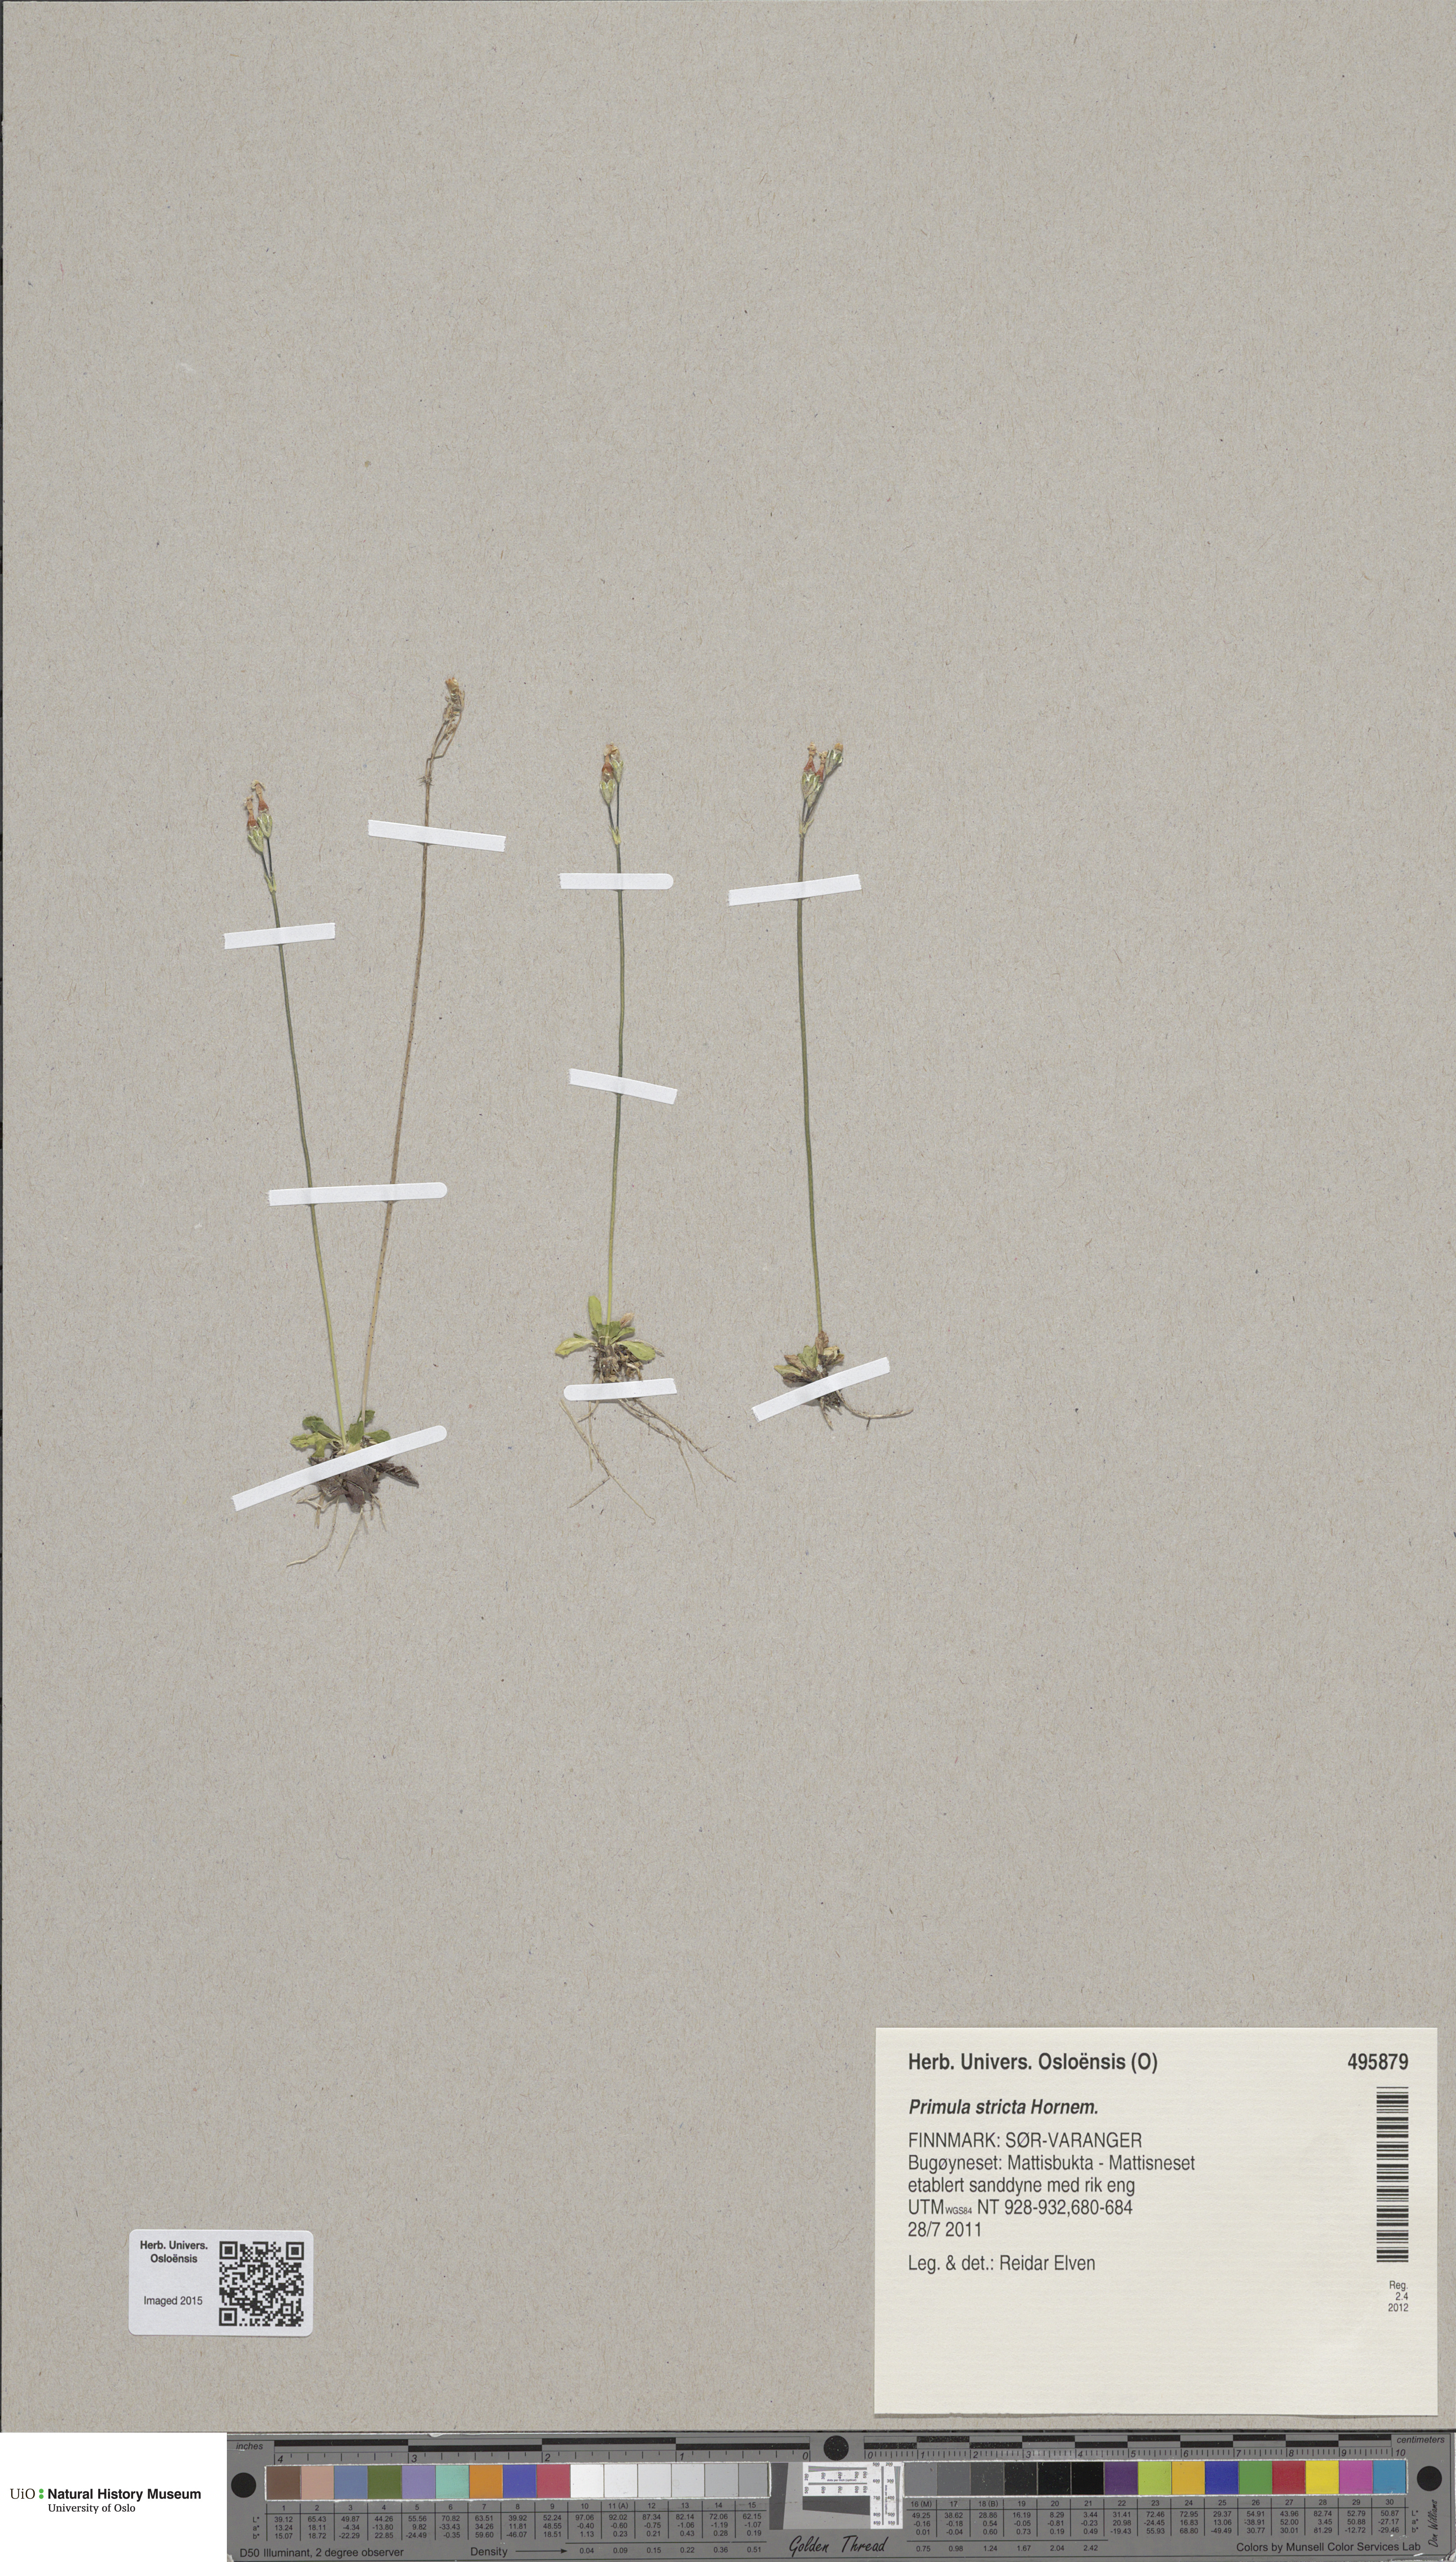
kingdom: Plantae
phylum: Tracheophyta
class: Magnoliopsida
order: Ericales
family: Primulaceae
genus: Primula
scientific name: Primula stricta
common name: Coastal primrose
